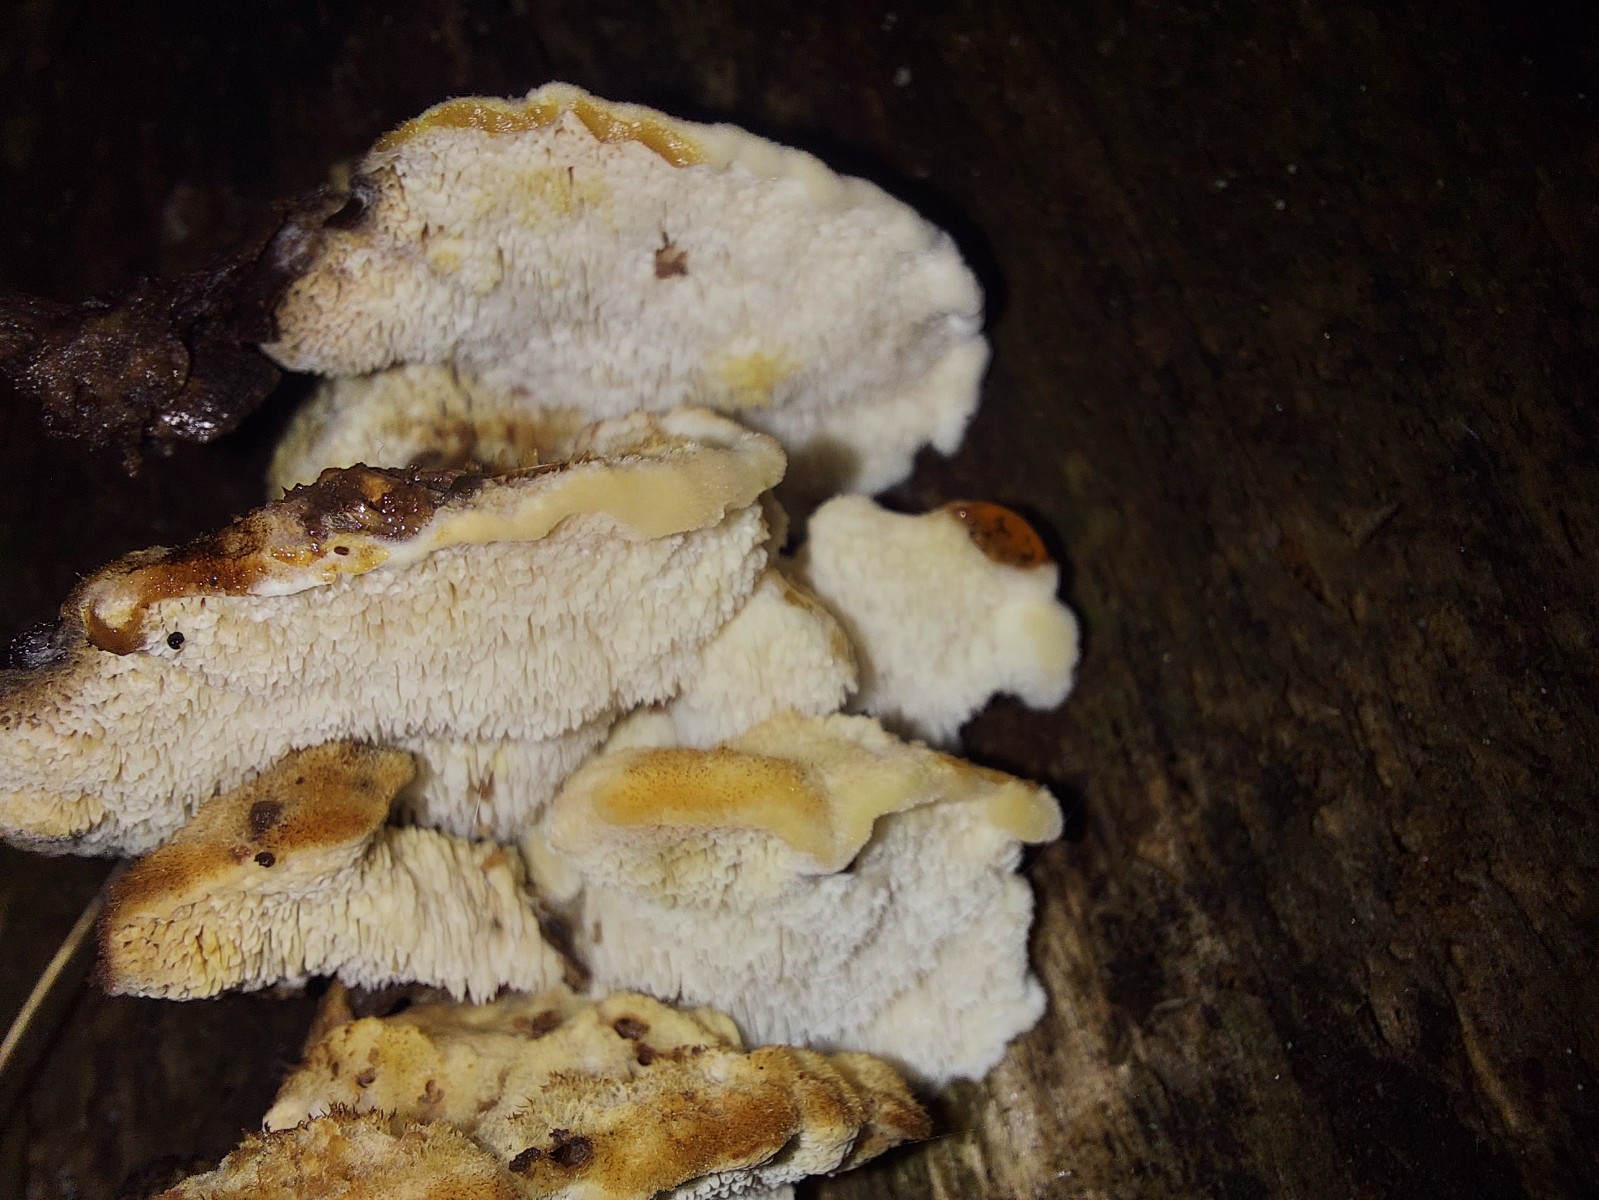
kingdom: Fungi
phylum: Basidiomycota
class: Agaricomycetes
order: Polyporales
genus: Fuscopostia
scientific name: Fuscopostia fragilis
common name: brunende kødporesvamp
